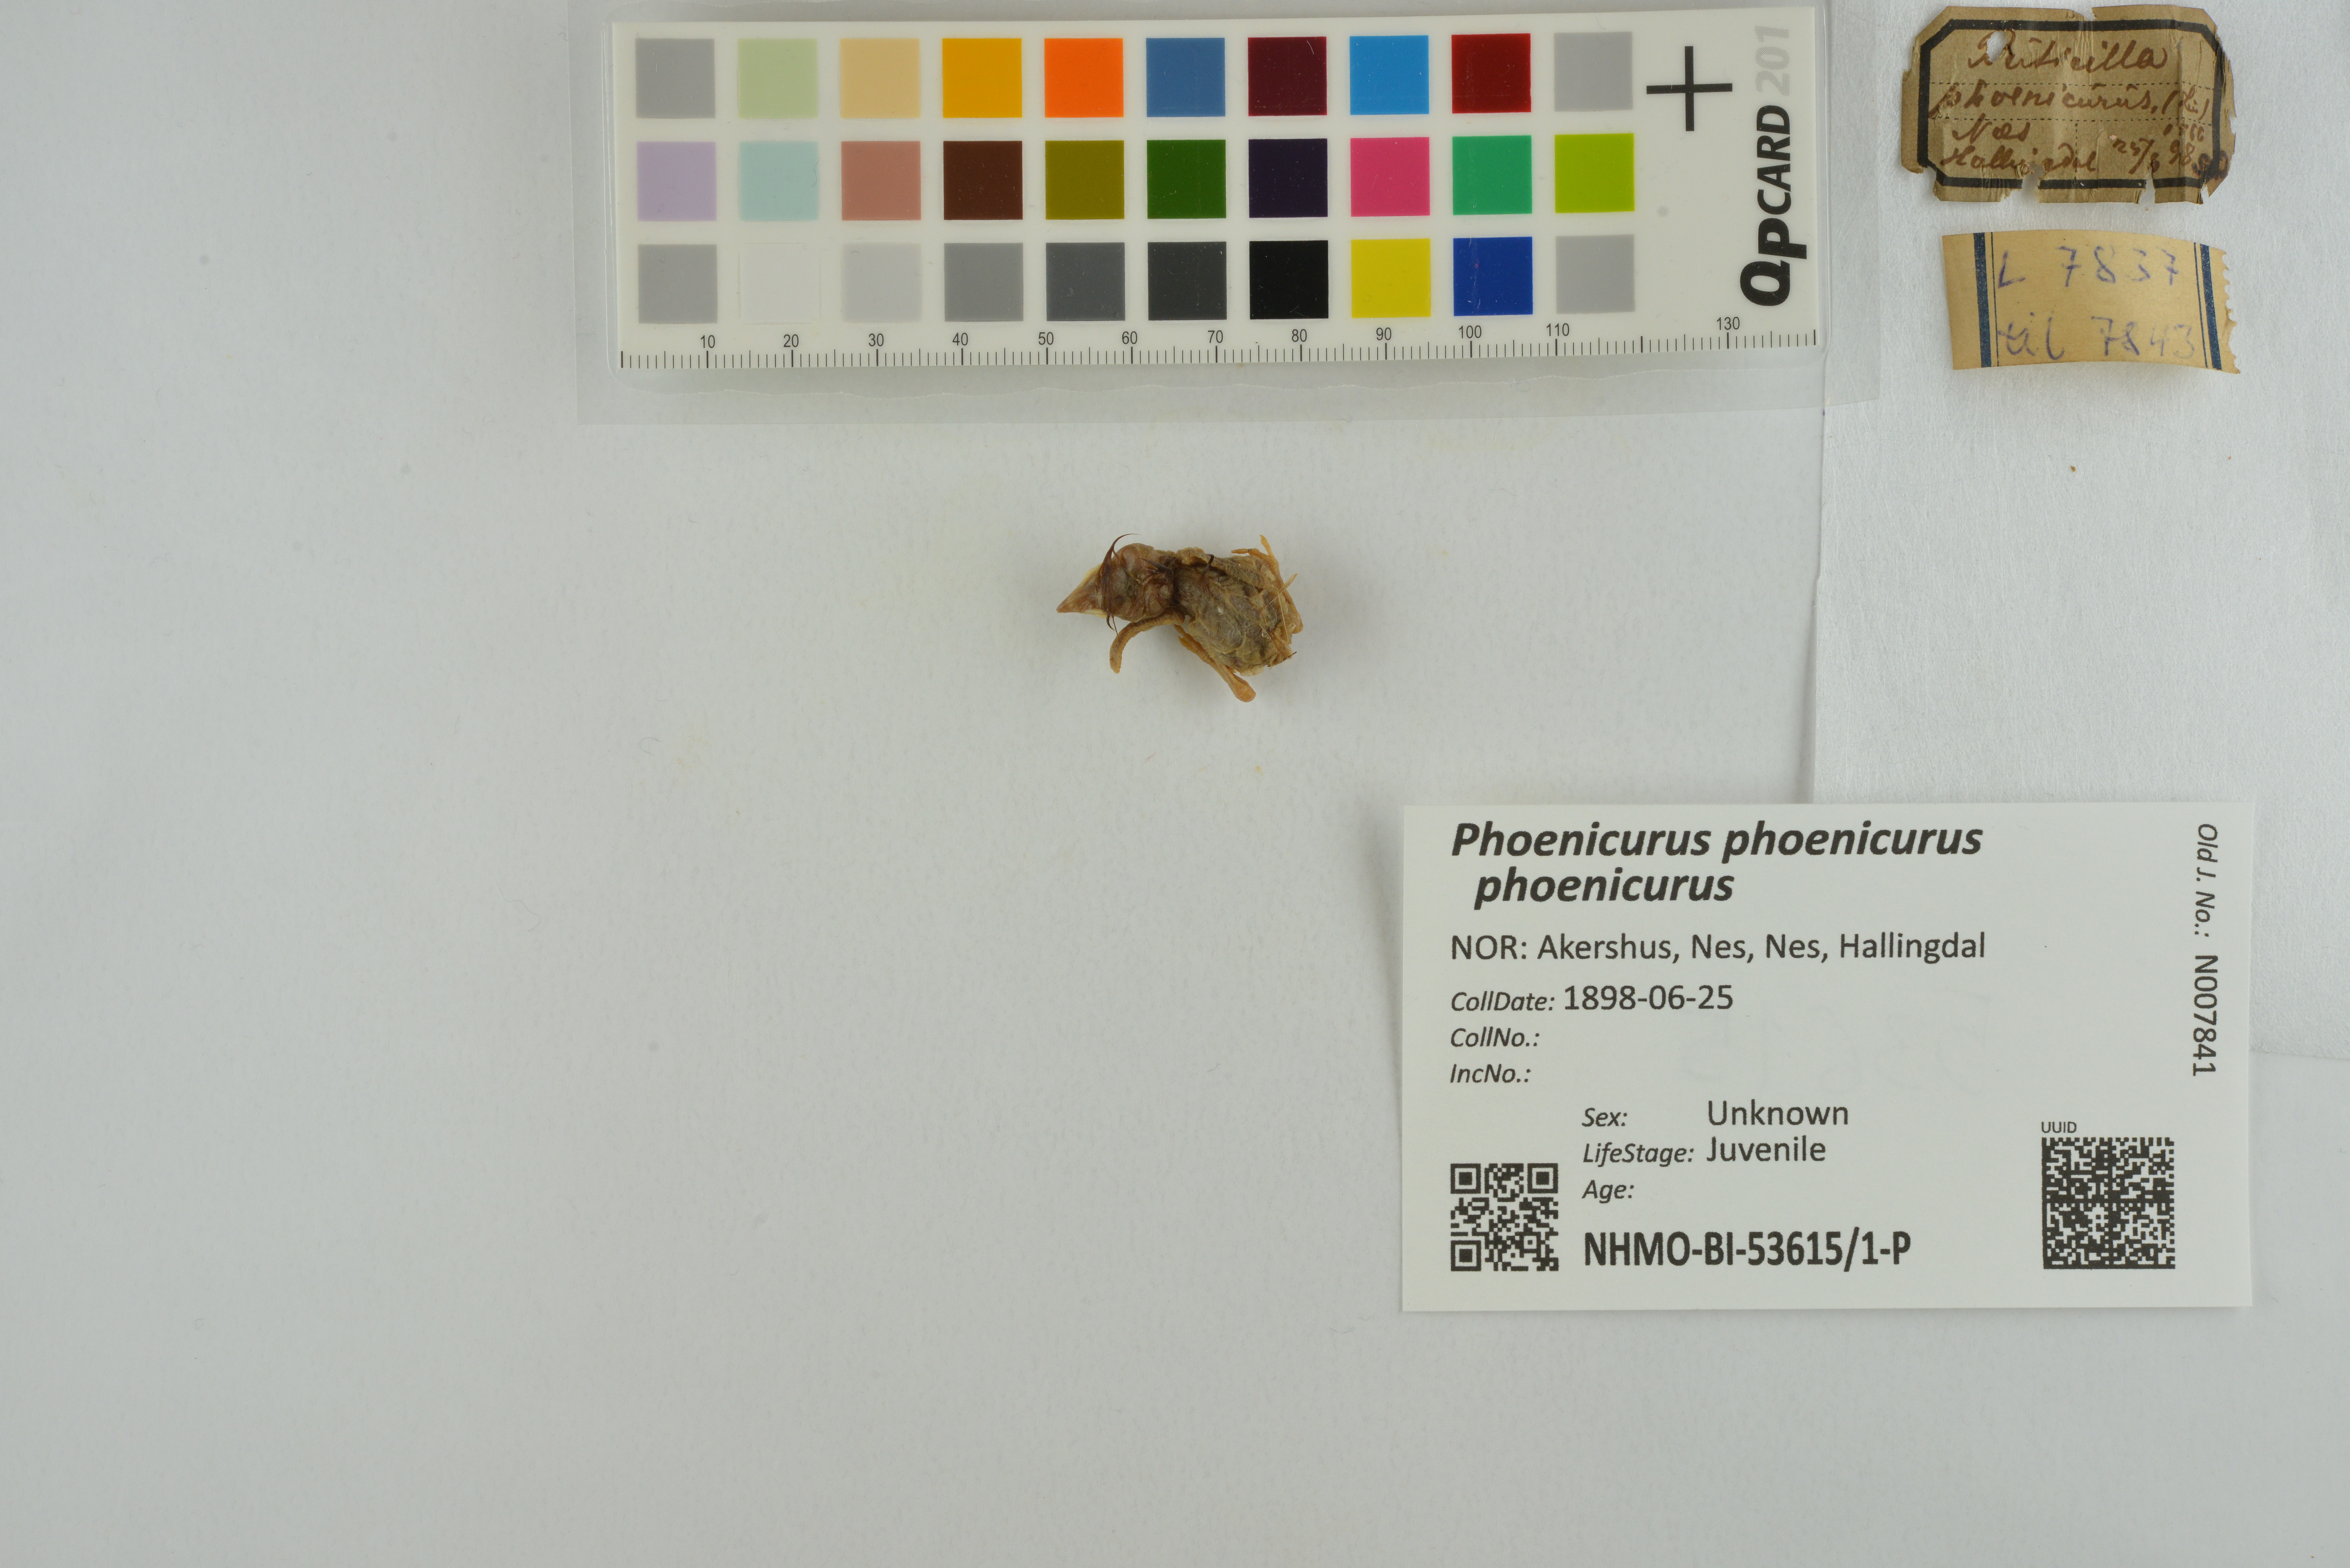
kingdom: Animalia
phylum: Chordata
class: Aves
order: Passeriformes
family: Muscicapidae
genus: Phoenicurus
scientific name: Phoenicurus phoenicurus
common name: Common redstart
